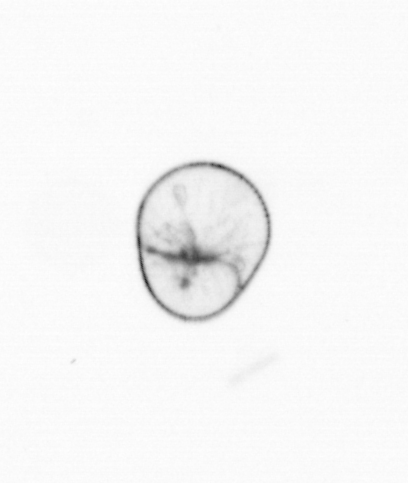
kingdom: Chromista
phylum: Myzozoa
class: Dinophyceae
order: Noctilucales
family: Noctilucaceae
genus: Noctiluca
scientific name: Noctiluca scintillans
